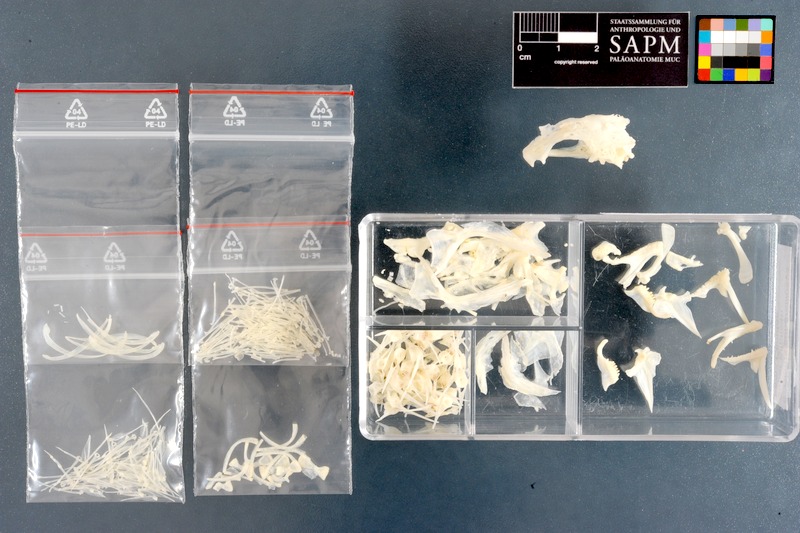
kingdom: Animalia
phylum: Chordata
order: Perciformes
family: Clinidae
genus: Clinus
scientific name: Clinus superciliosus
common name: Super klipfish
